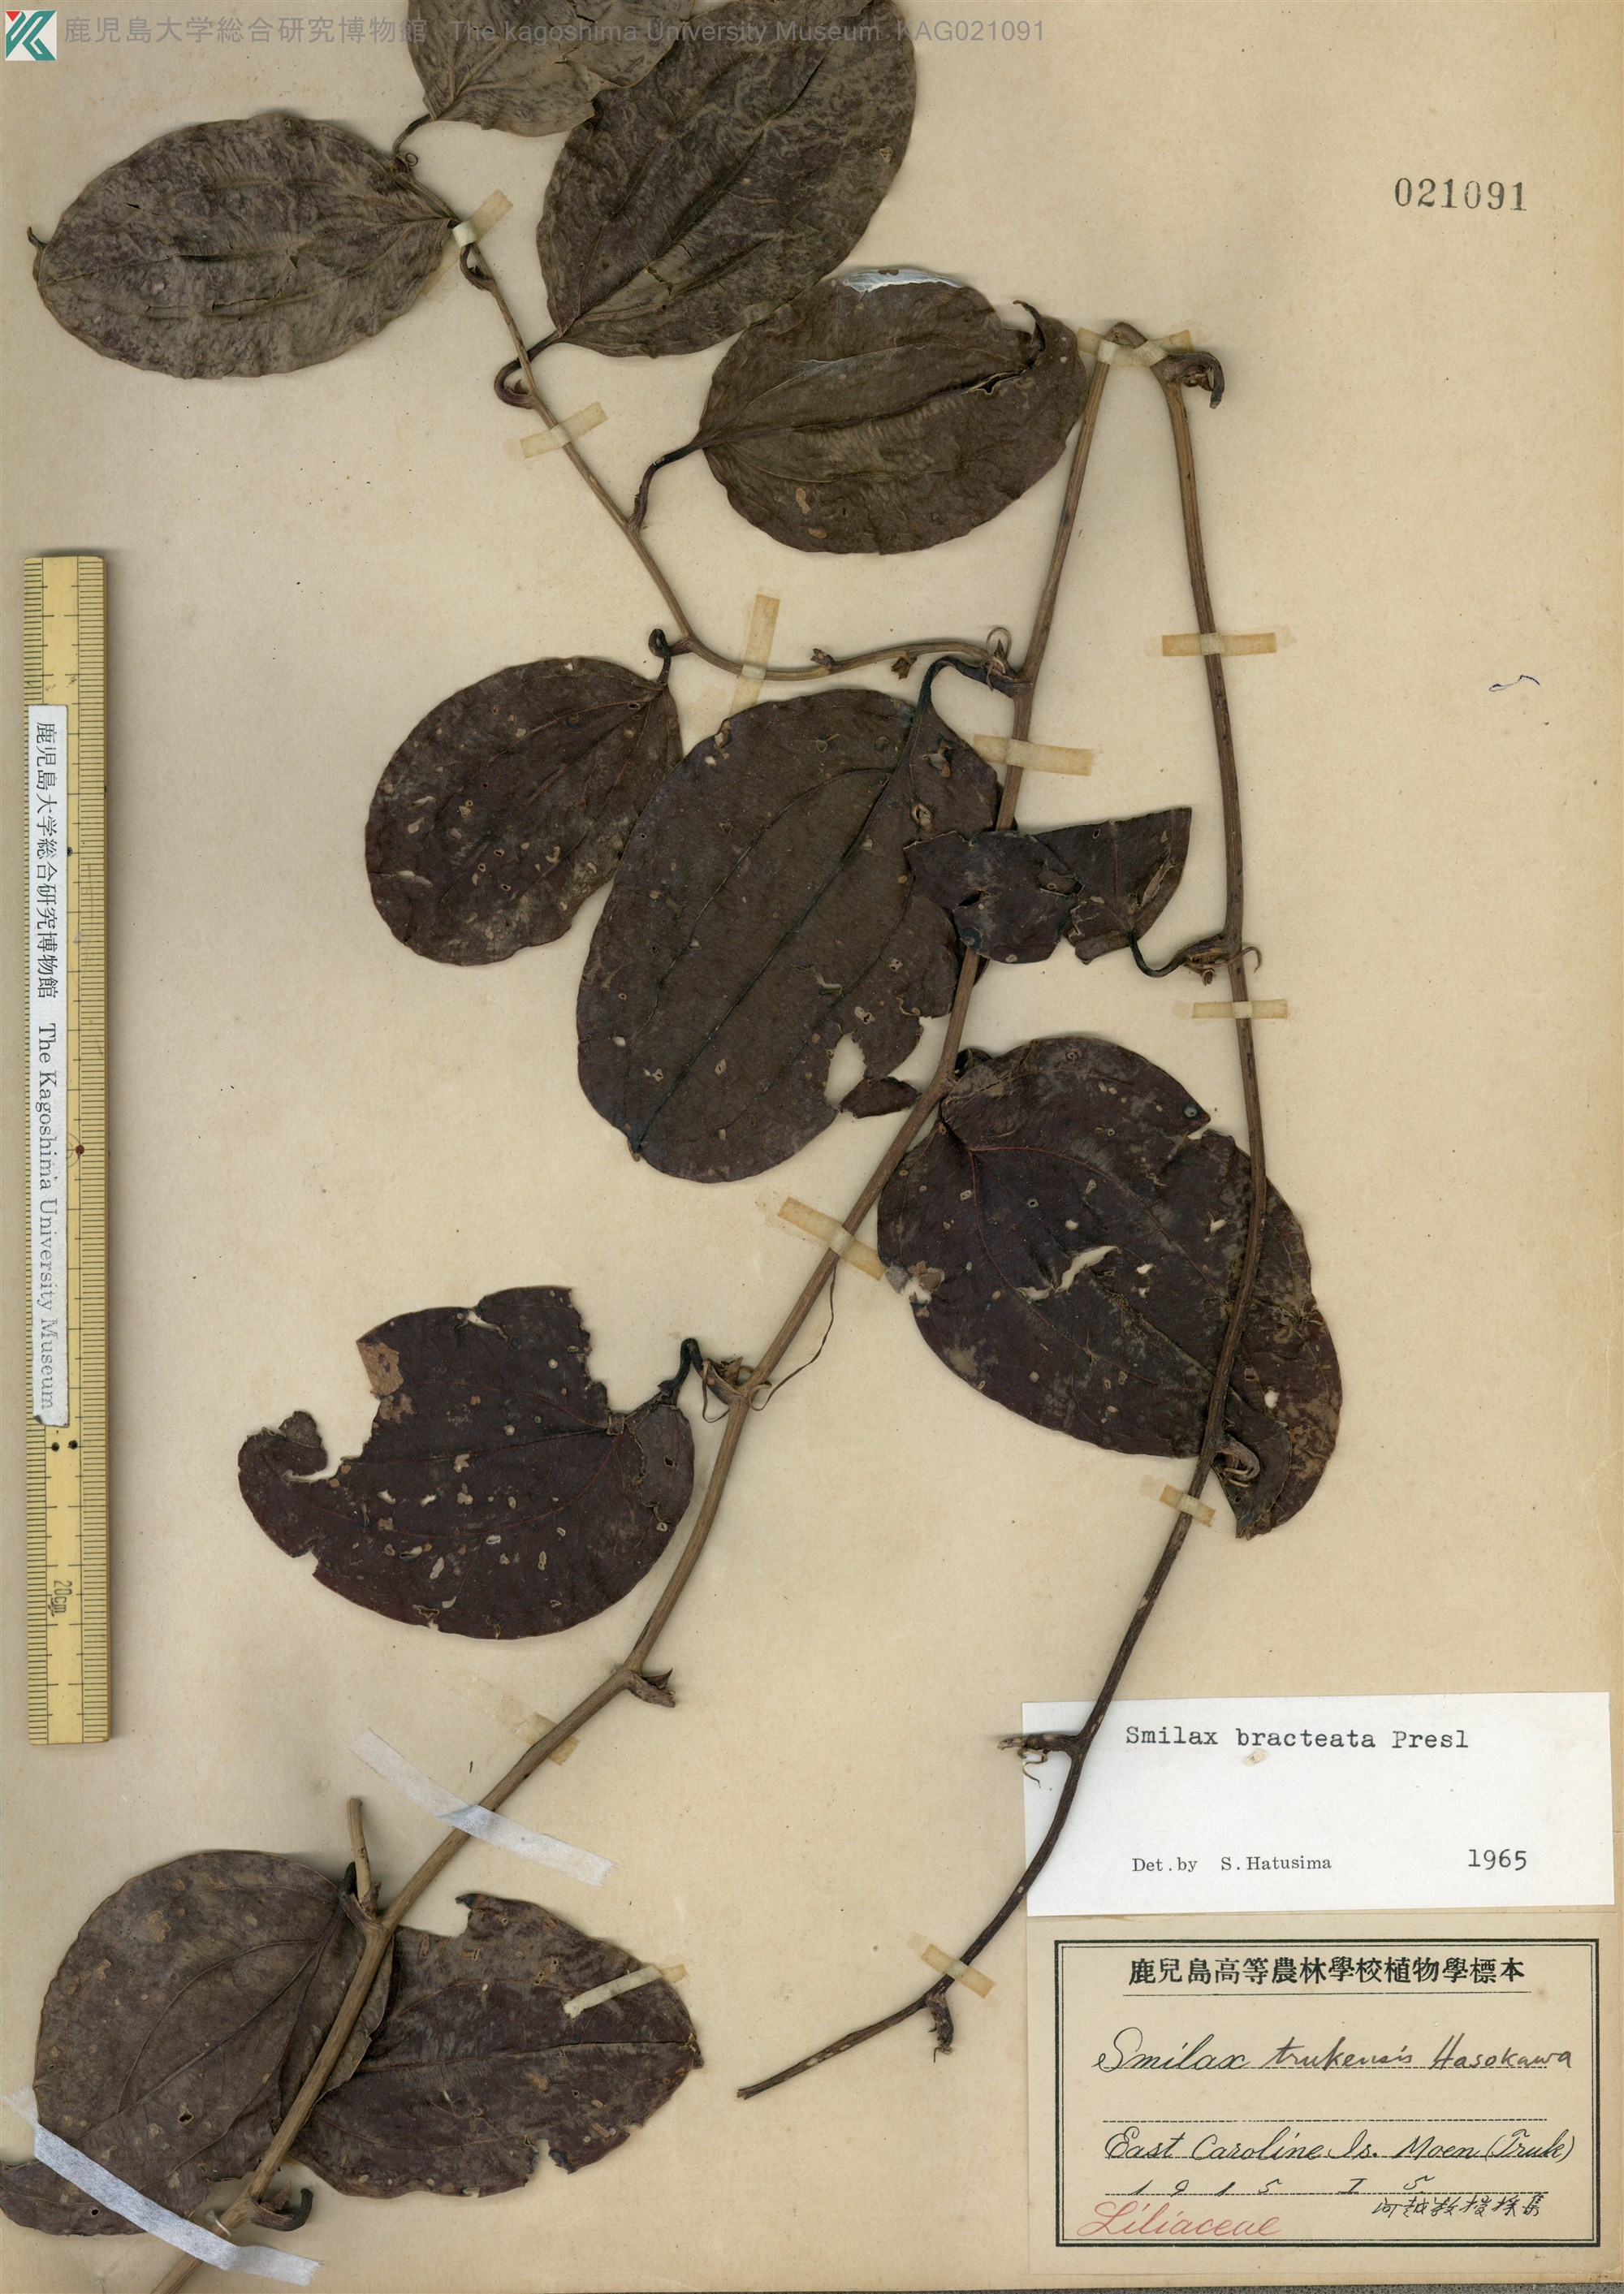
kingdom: Plantae
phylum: Tracheophyta
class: Liliopsida
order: Liliales
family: Smilacaceae
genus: Smilax
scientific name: Smilax bracteata
